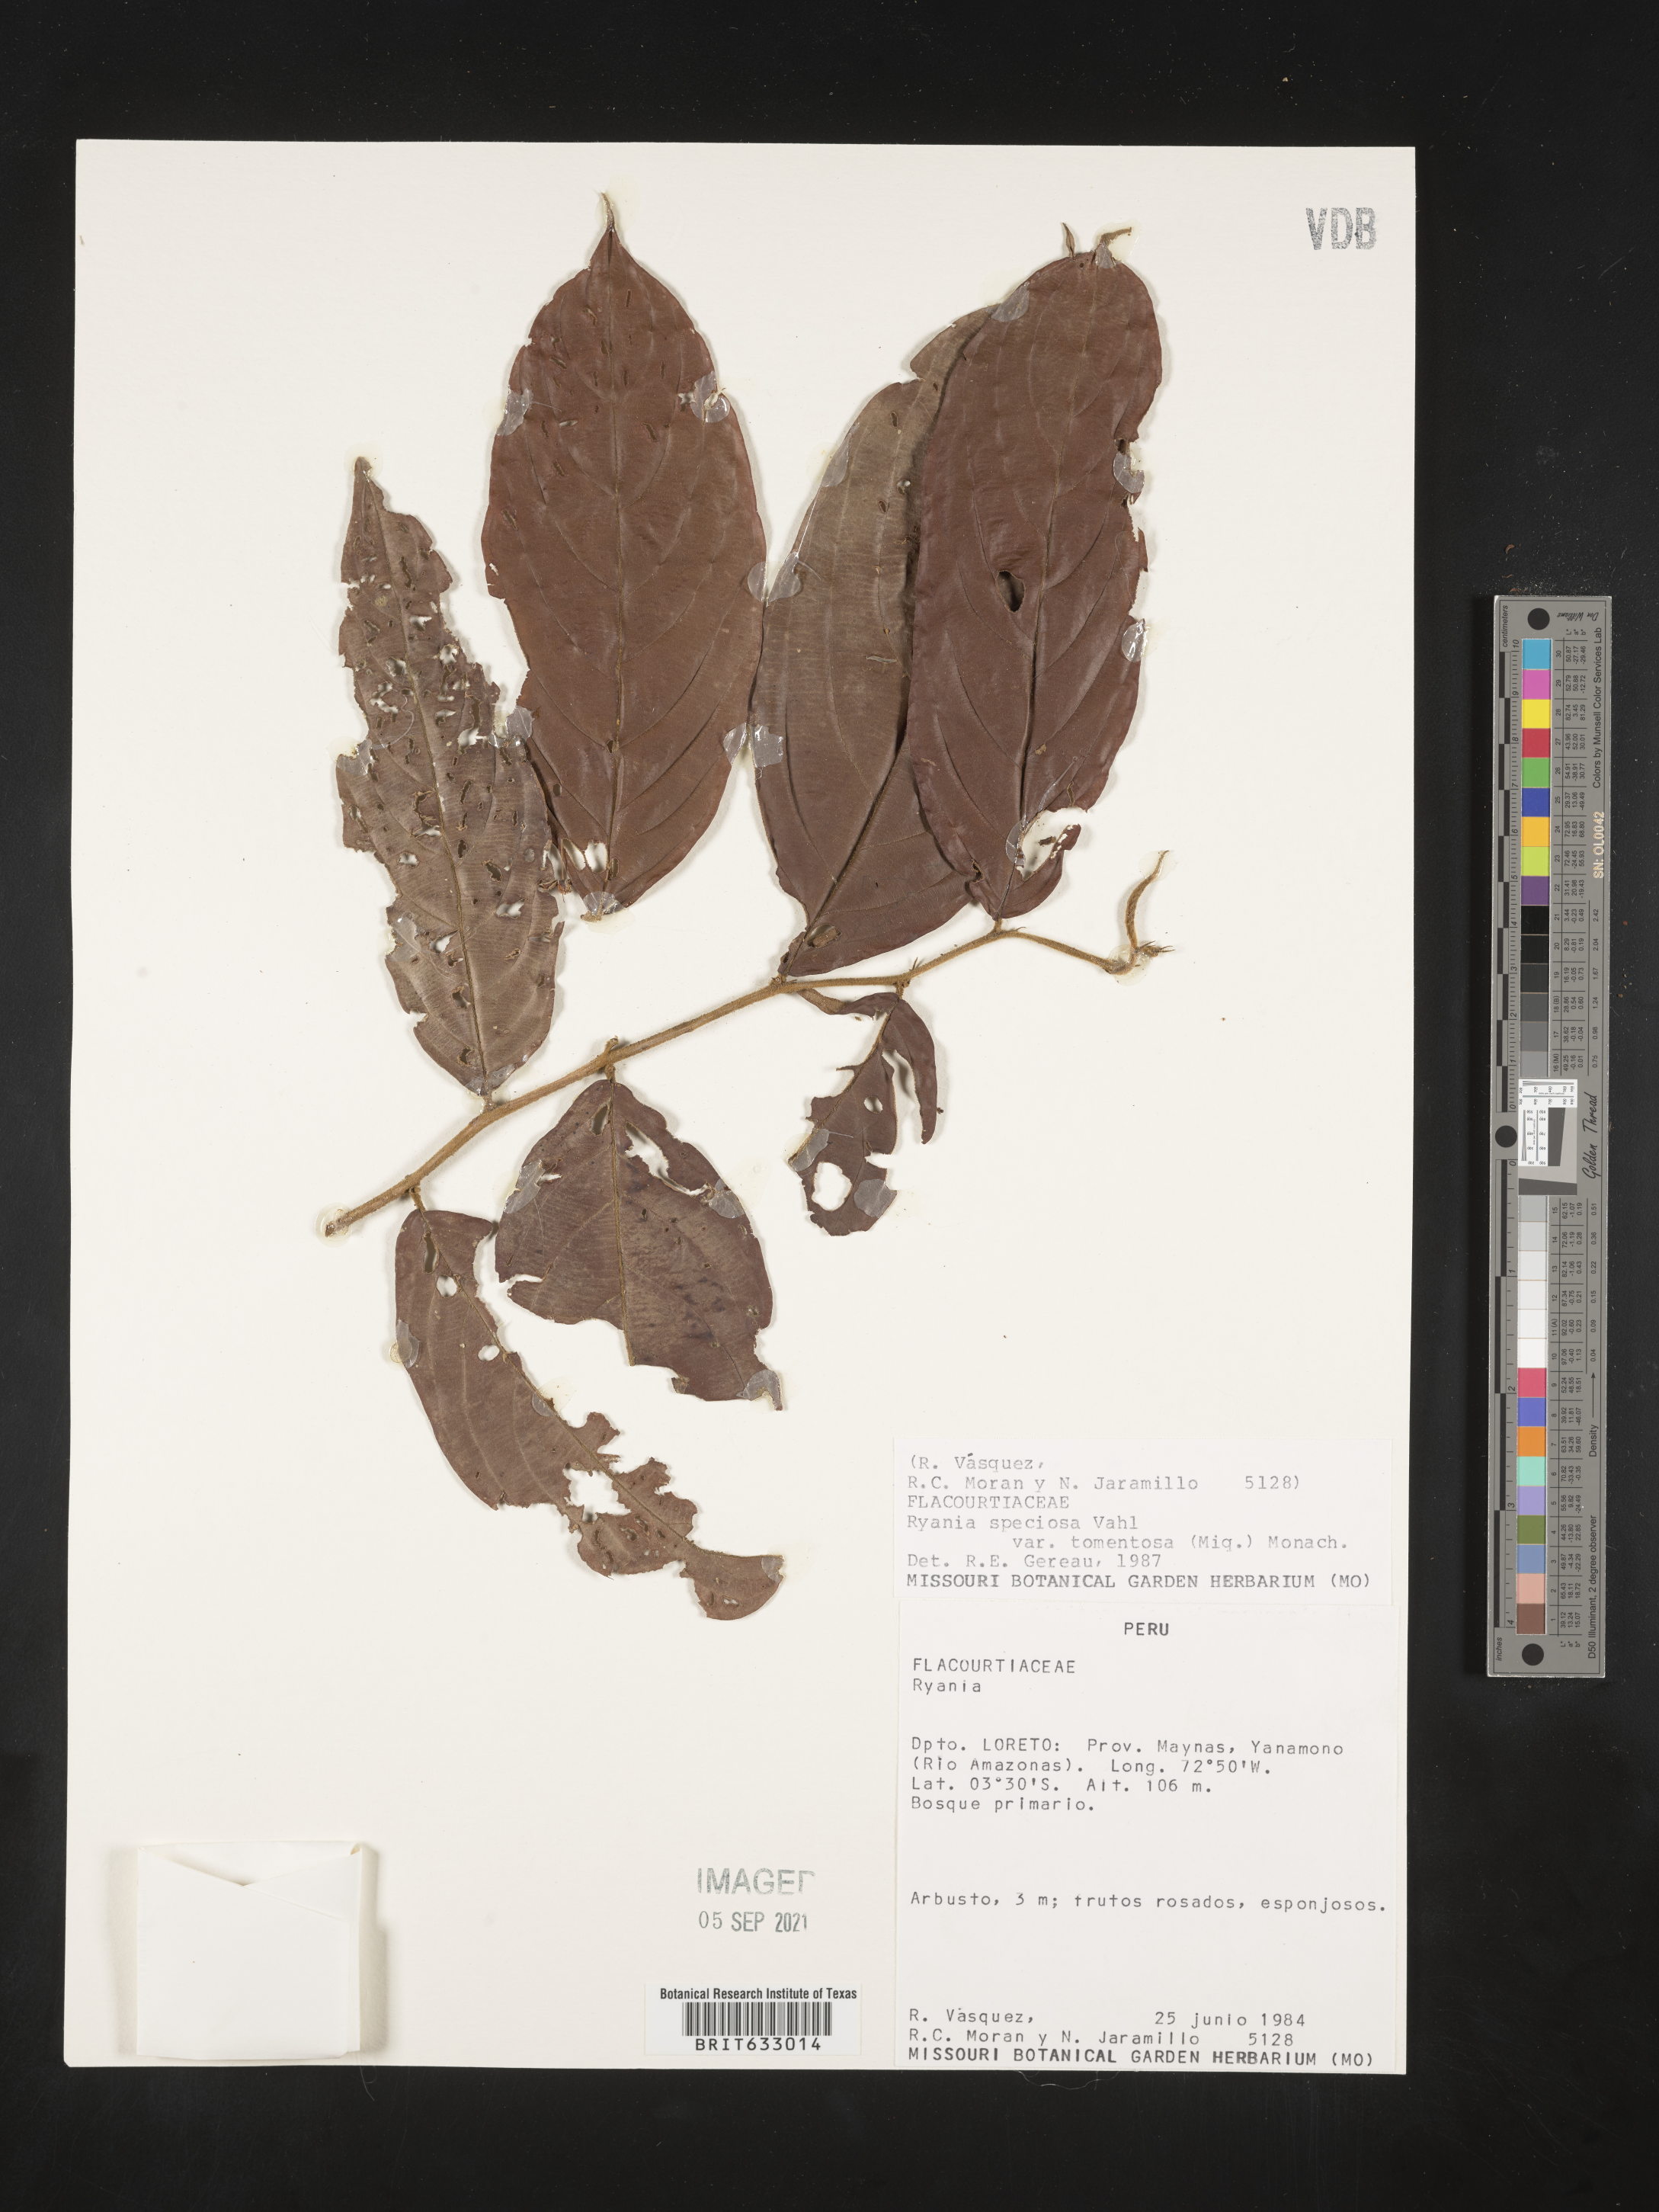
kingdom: Plantae
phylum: Tracheophyta
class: Magnoliopsida
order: Malpighiales
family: Salicaceae
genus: Ryania
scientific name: Ryania
